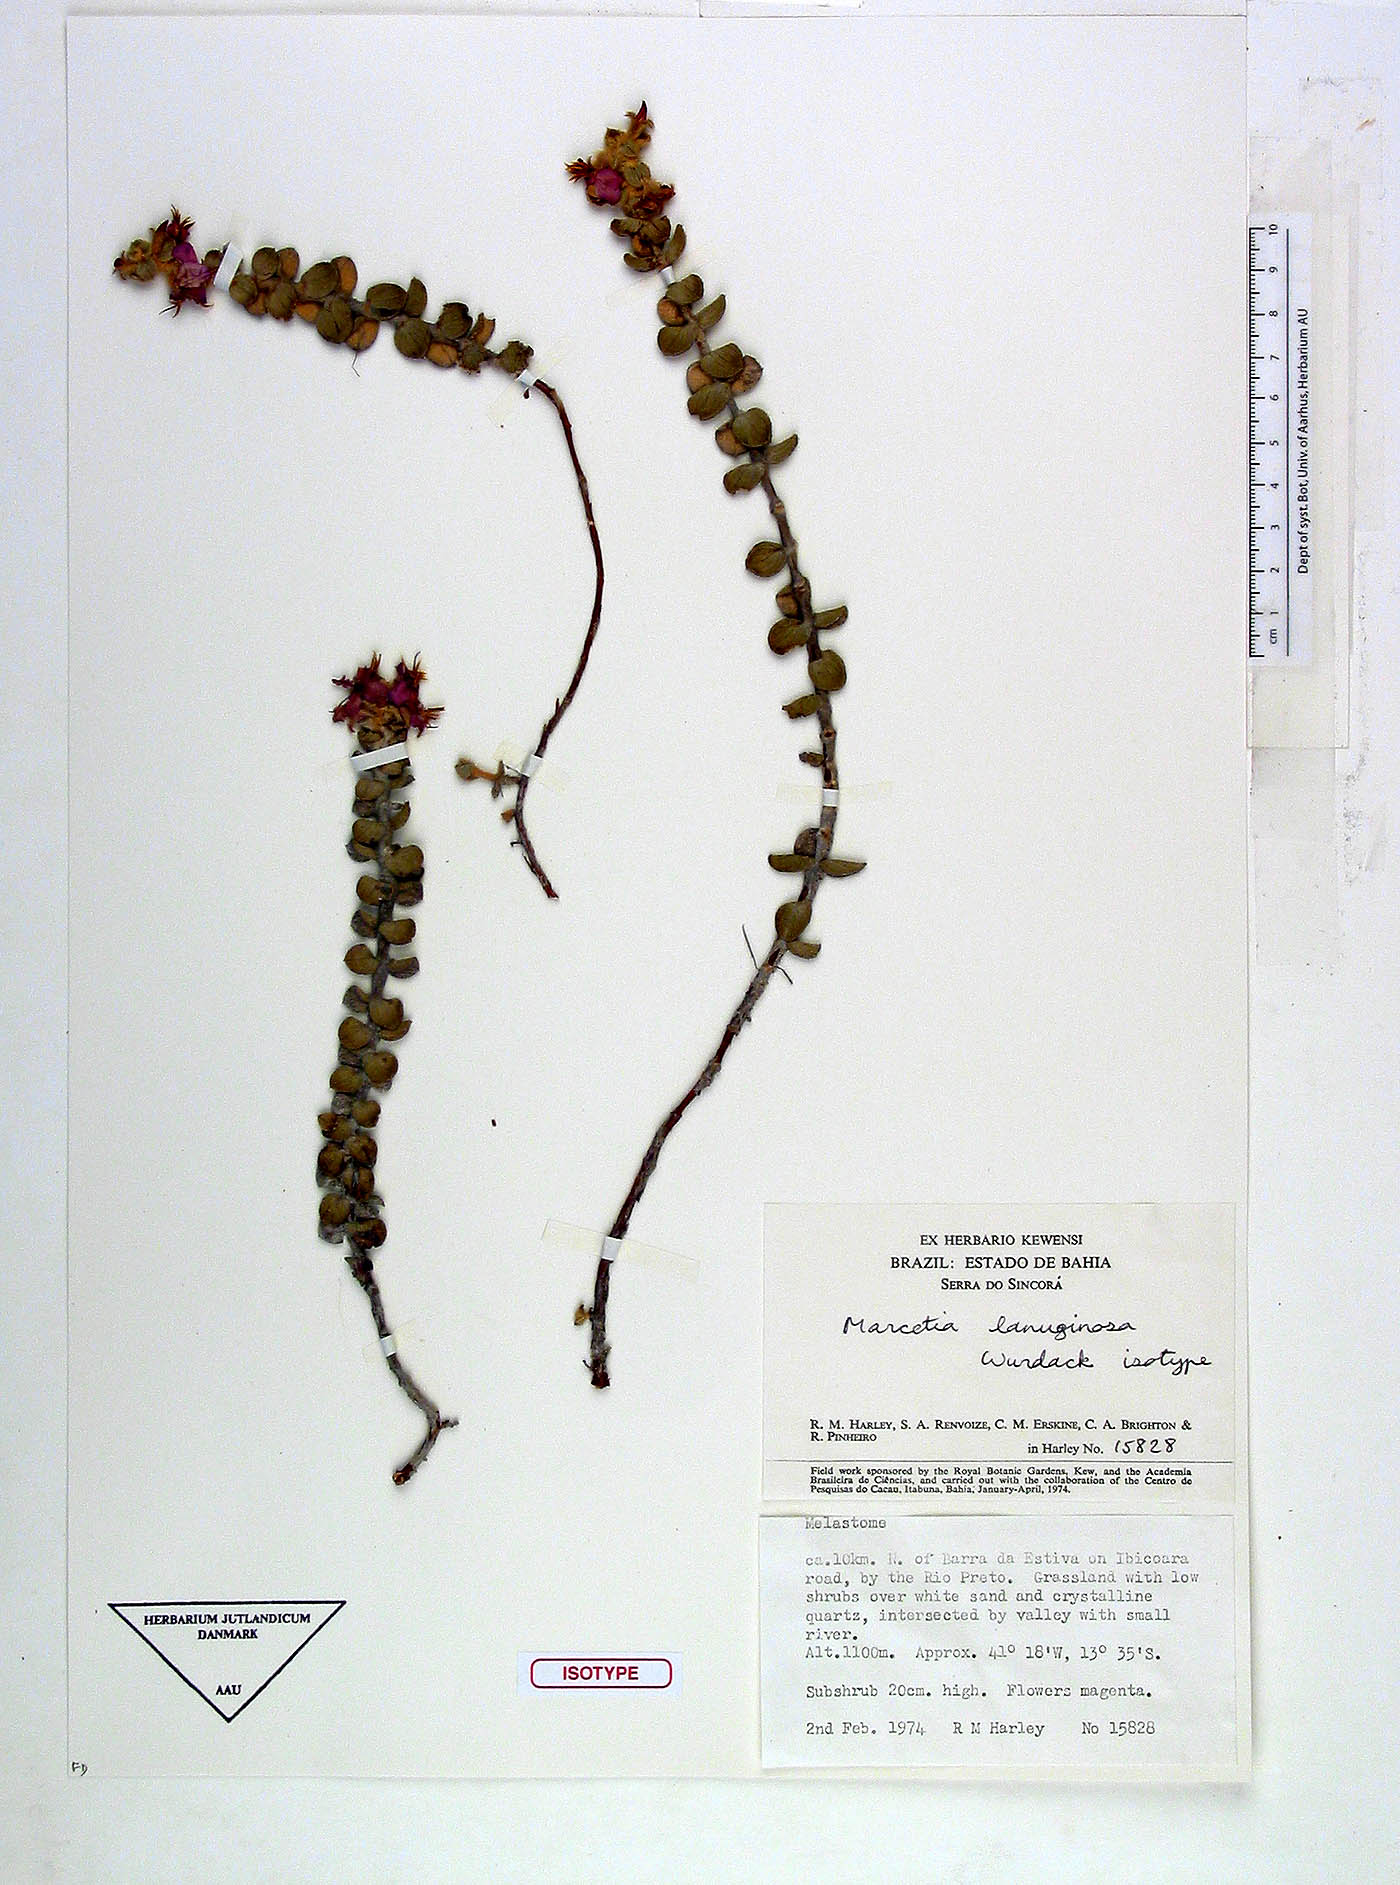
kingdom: Plantae
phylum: Tracheophyta
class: Magnoliopsida
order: Myrtales
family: Melastomataceae
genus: Marcetia
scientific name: Marcetia lanuginosa
